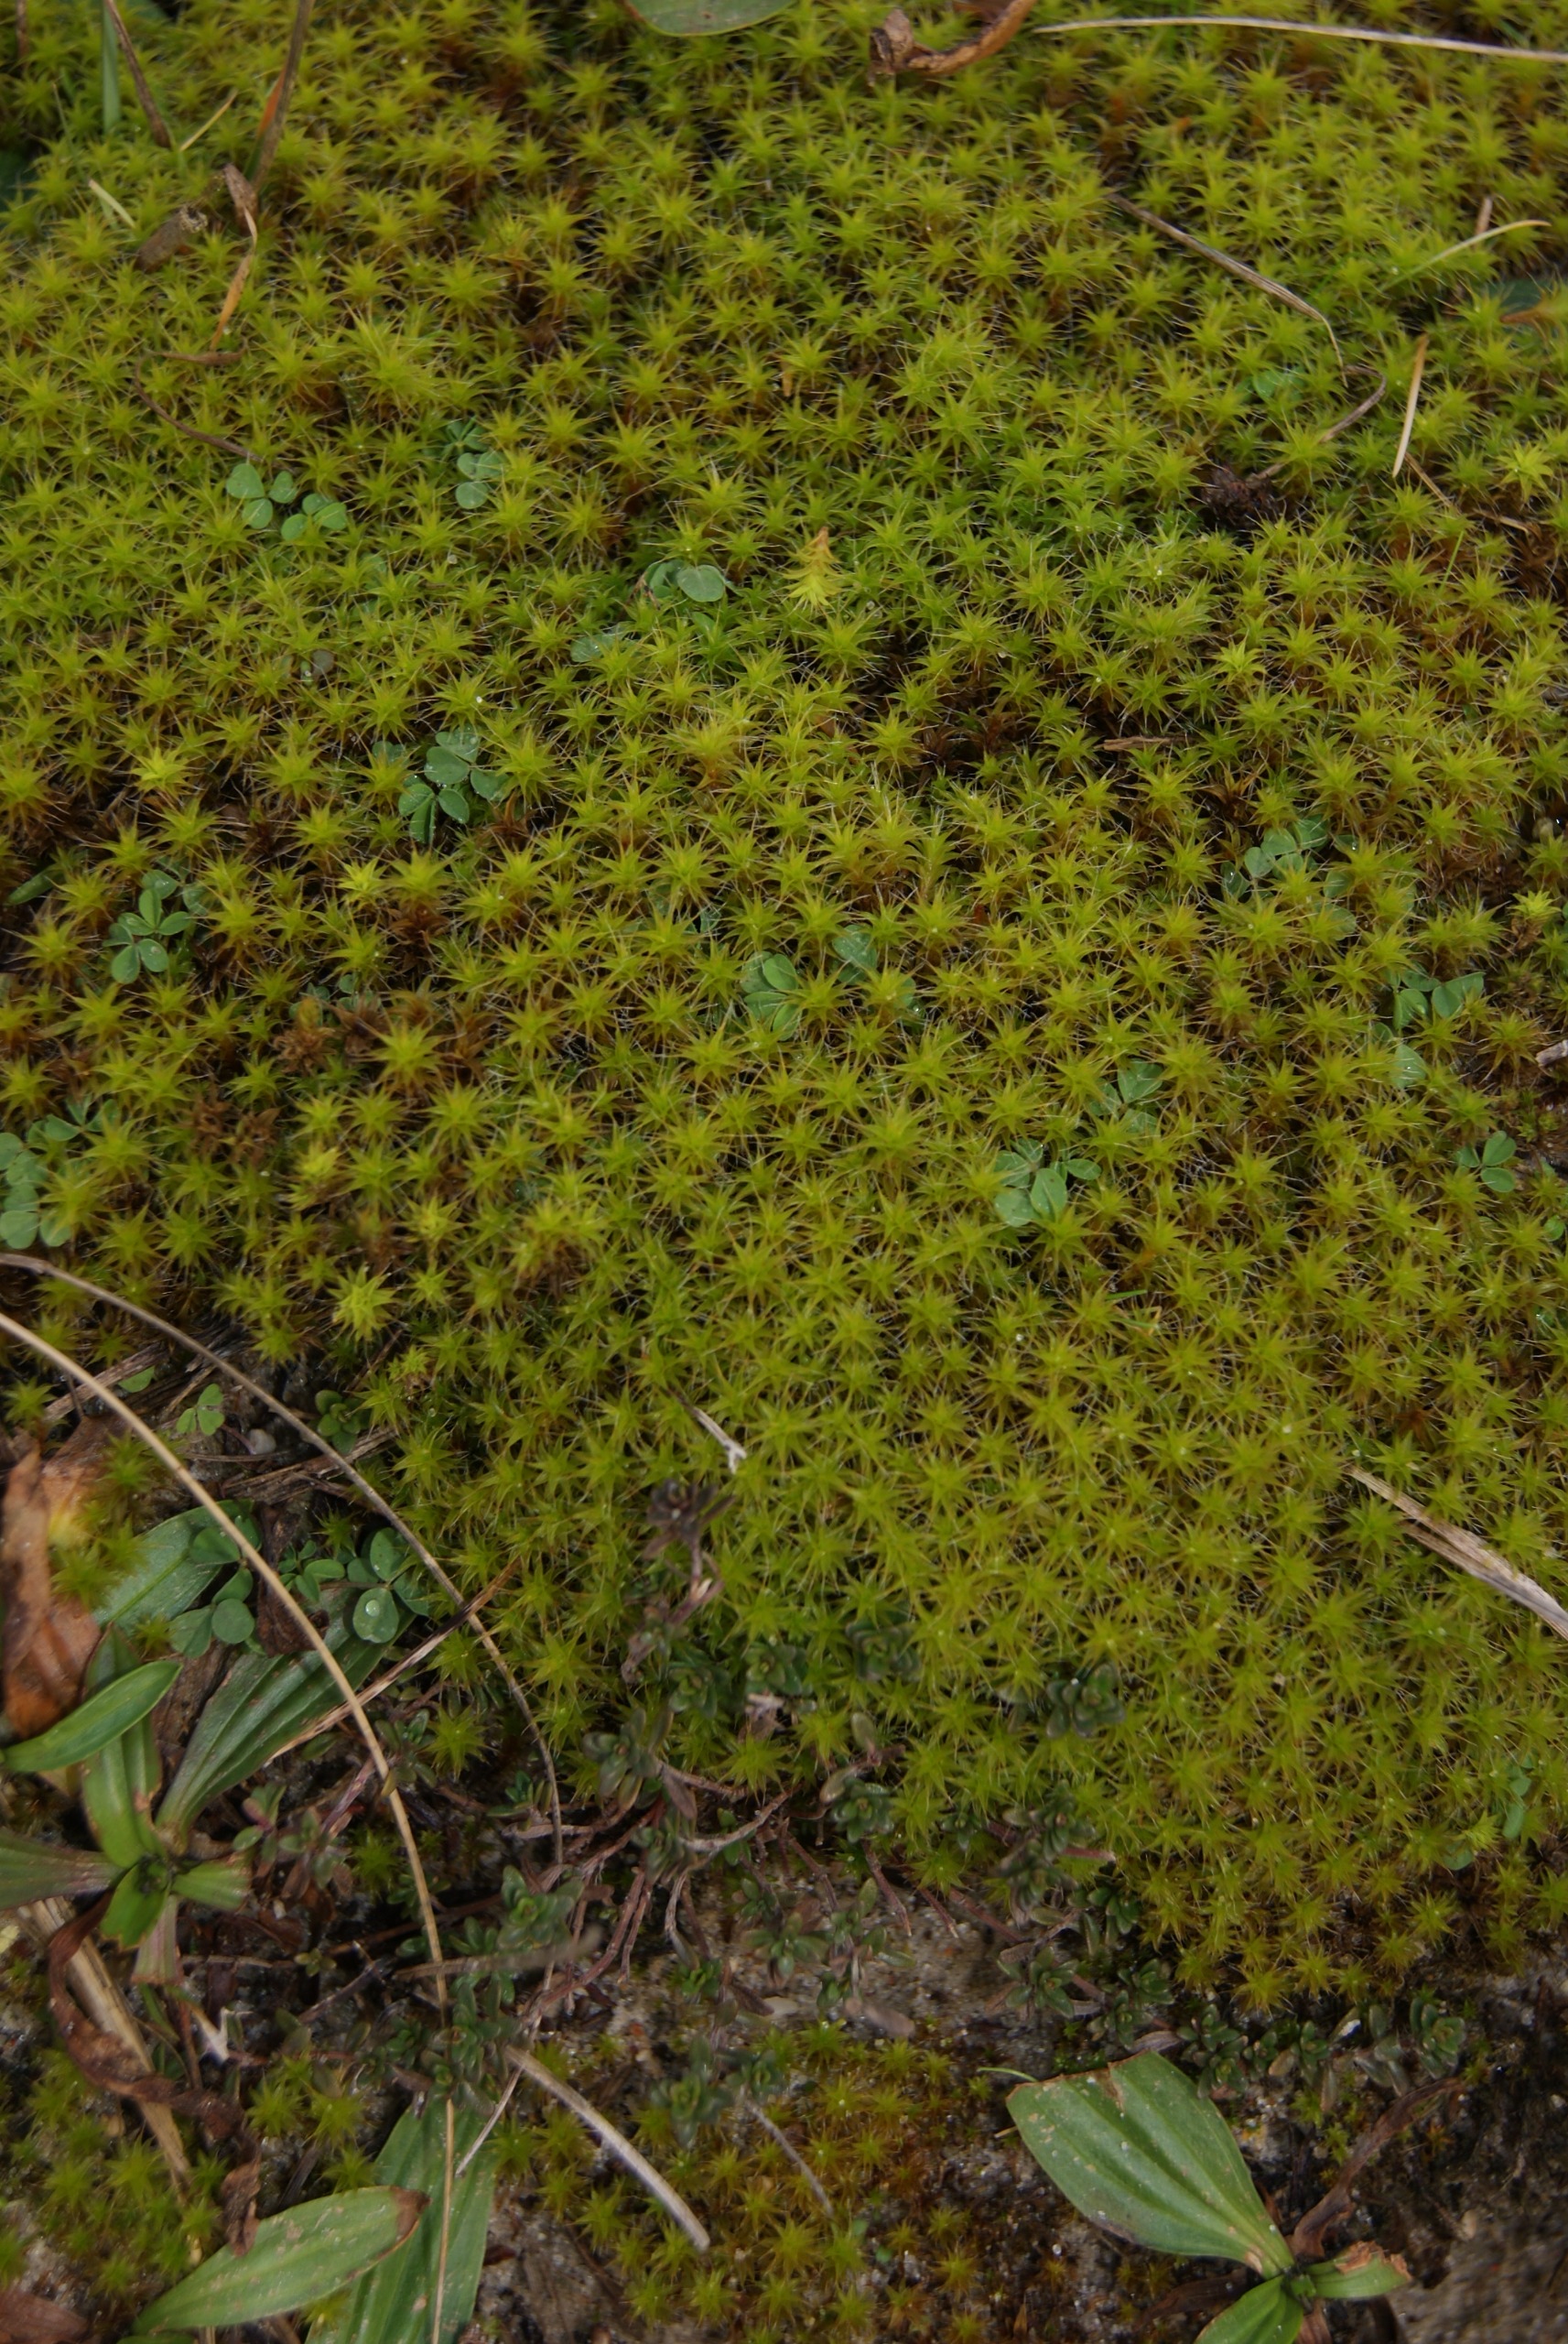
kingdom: Plantae
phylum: Bryophyta
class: Bryopsida
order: Pottiales
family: Pottiaceae
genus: Syntrichia
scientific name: Syntrichia ruralis
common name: Spidsbladet hårstjerne
